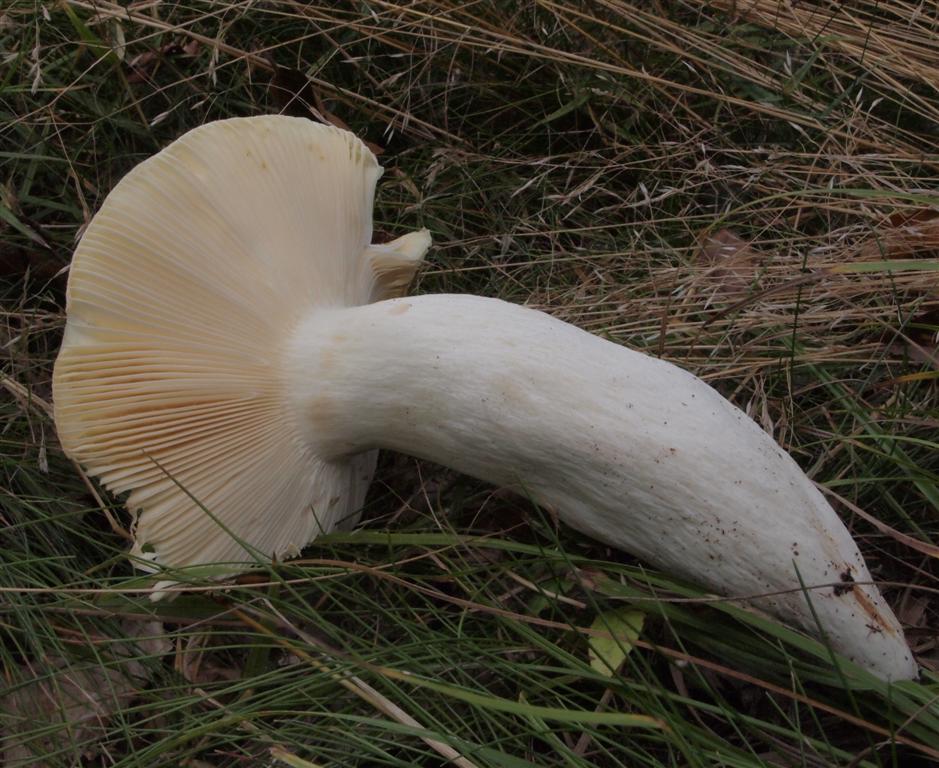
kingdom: Fungi
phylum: Basidiomycota
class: Agaricomycetes
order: Russulales
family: Russulaceae
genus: Russula
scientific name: Russula
